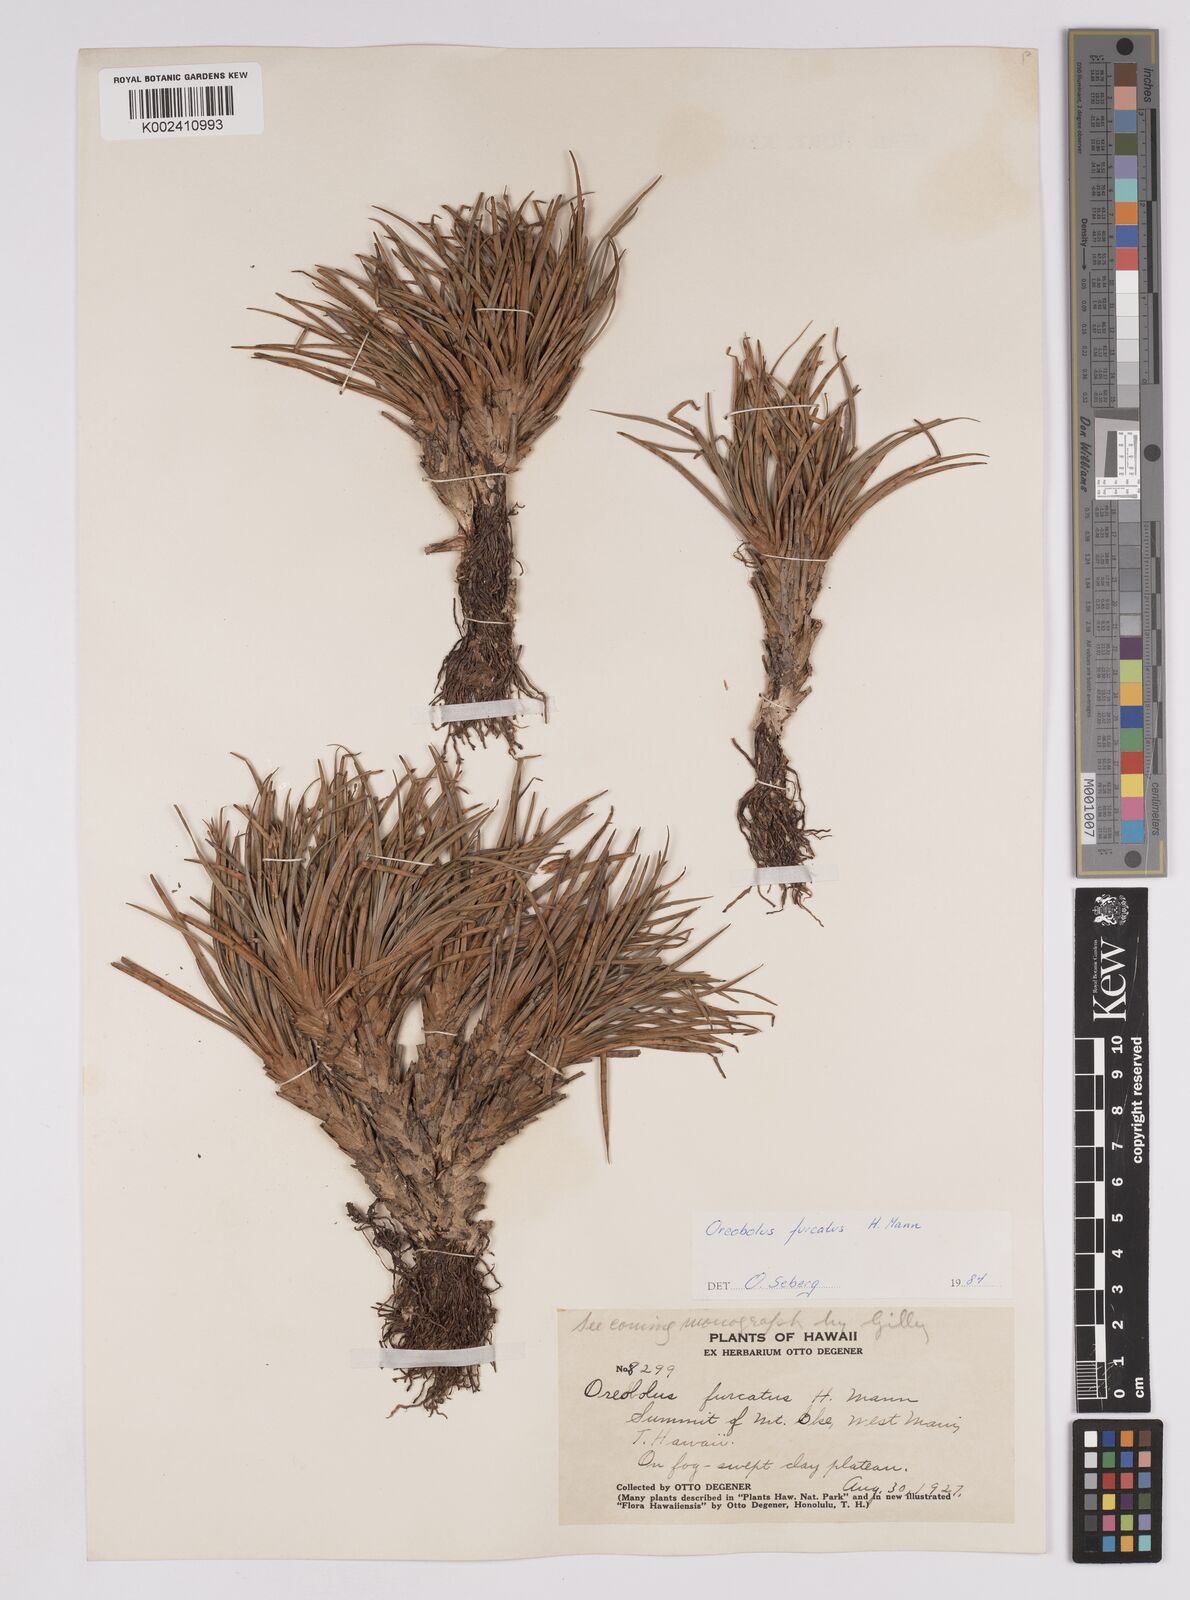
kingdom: Plantae
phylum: Tracheophyta
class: Liliopsida
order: Poales
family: Cyperaceae
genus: Oreobolus
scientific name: Oreobolus furcatus
